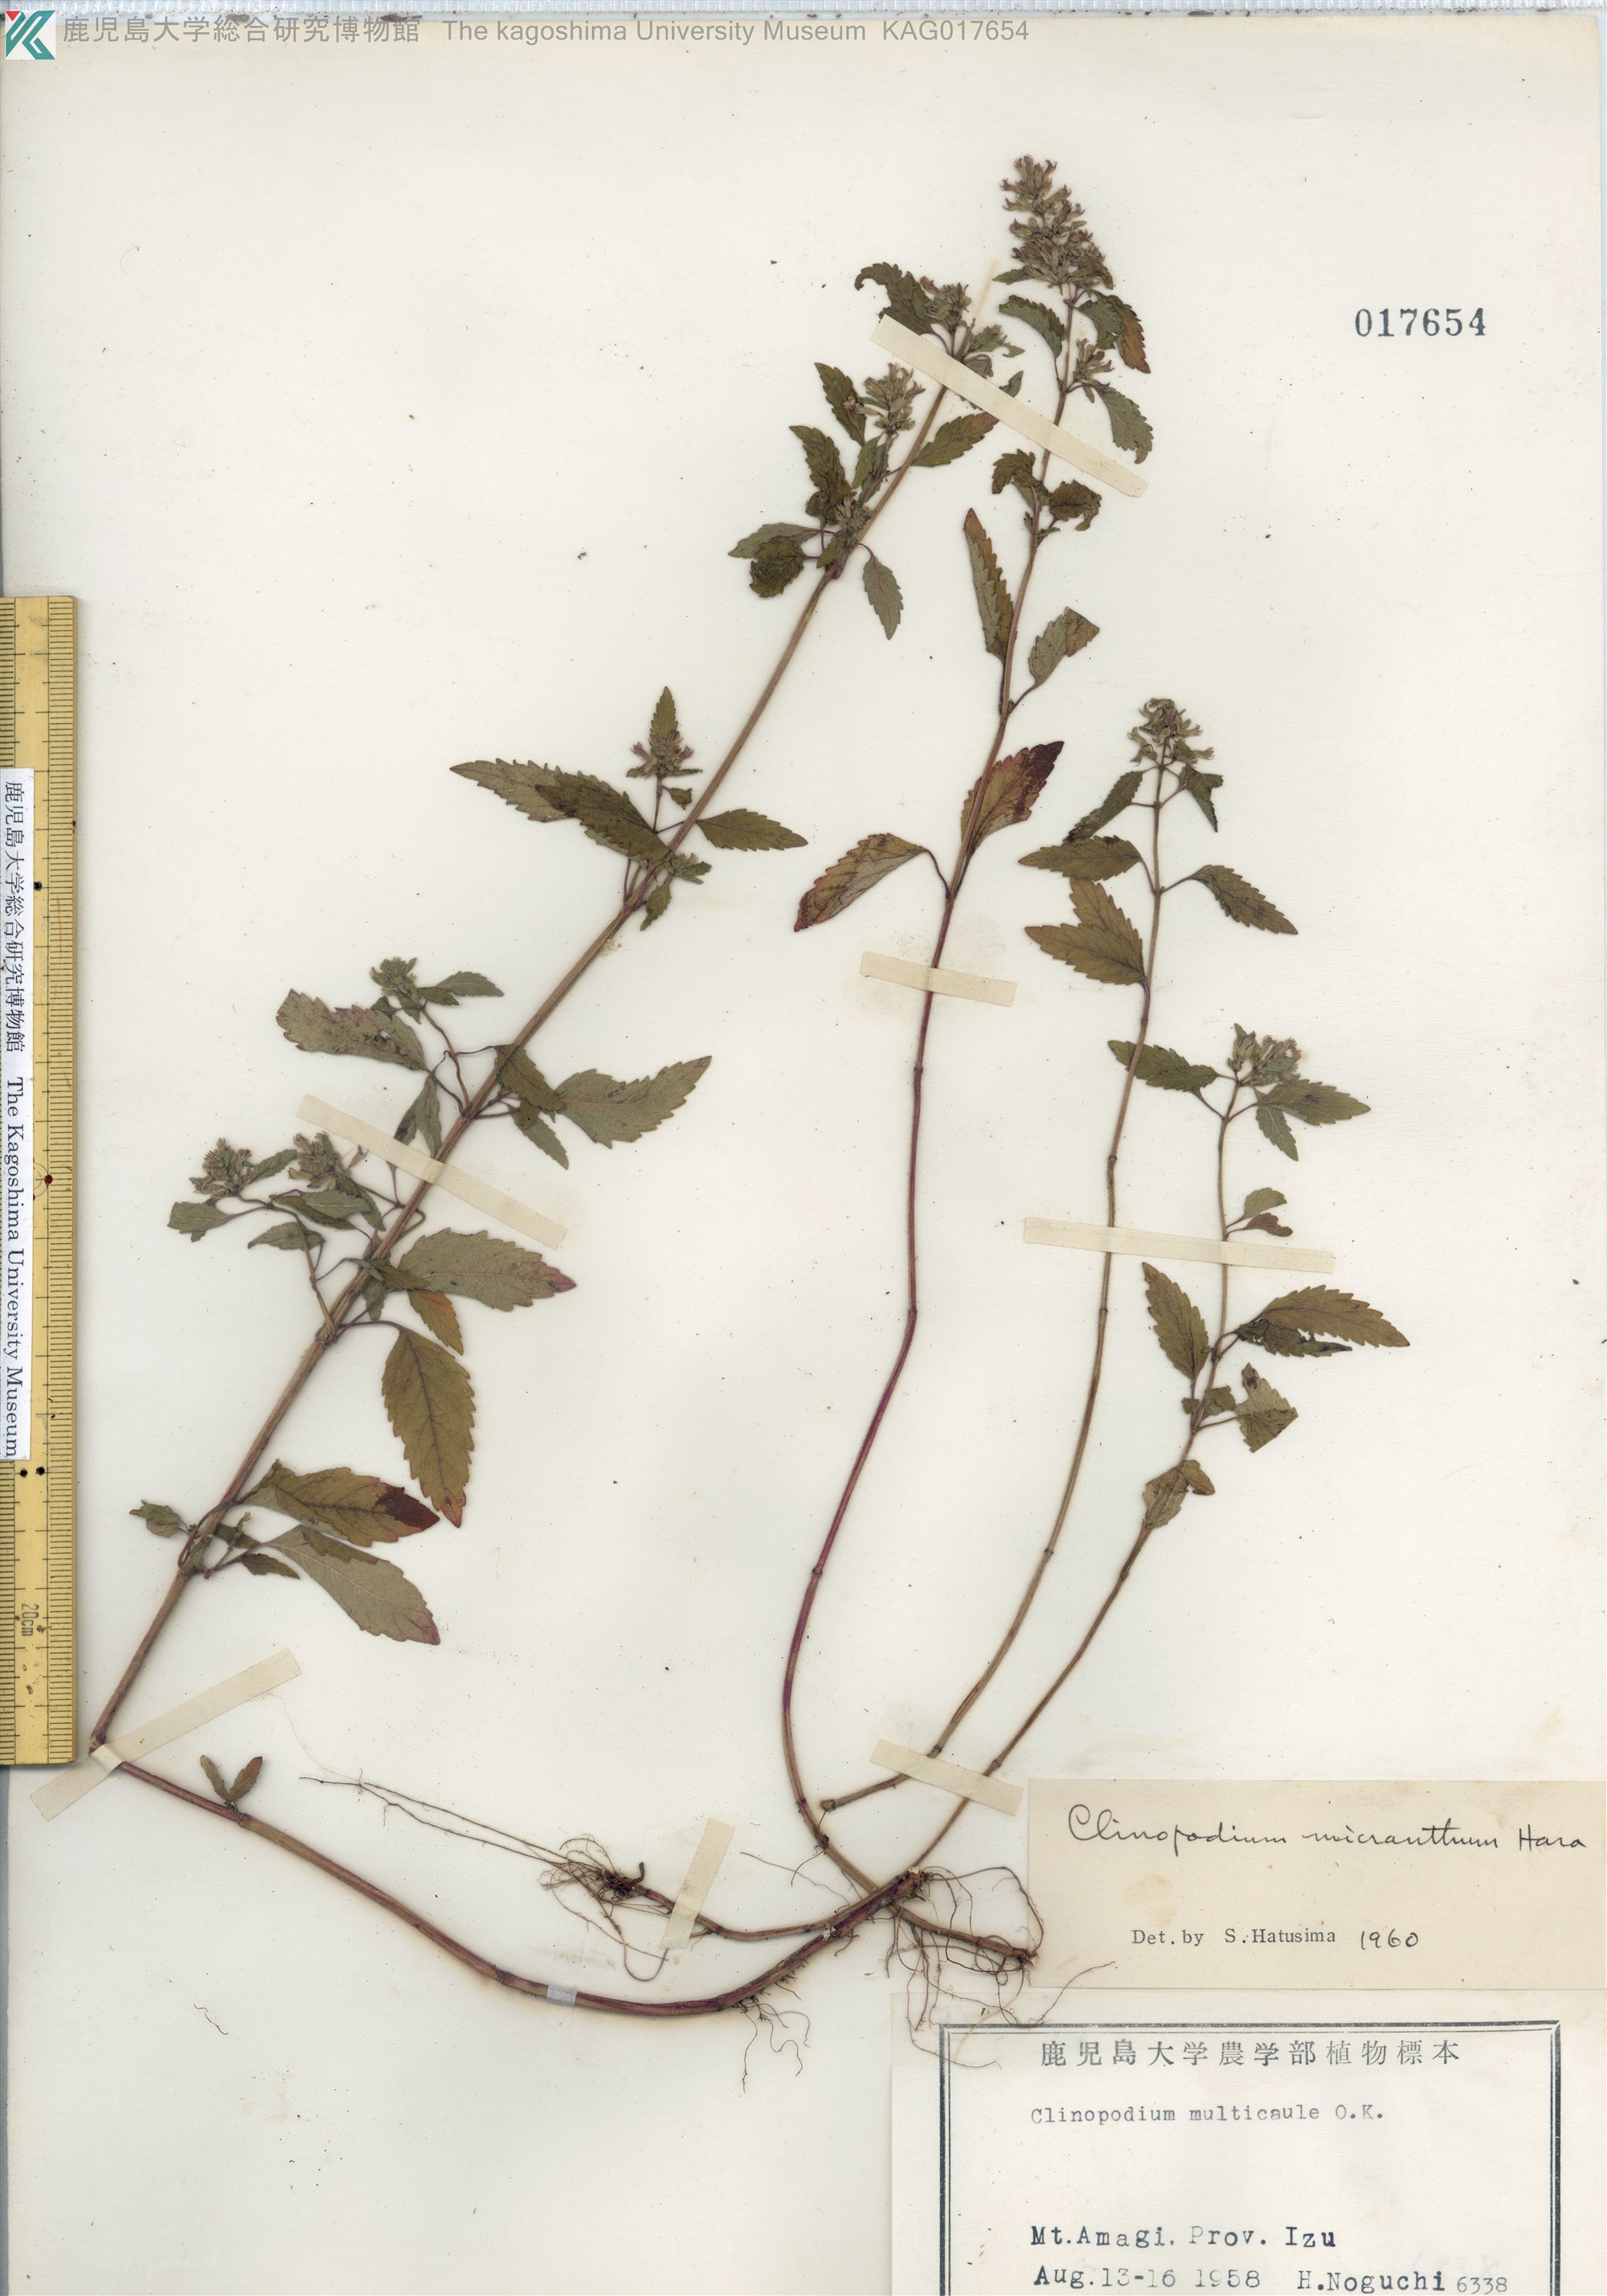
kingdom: Plantae
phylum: Tracheophyta
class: Magnoliopsida
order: Lamiales
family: Lamiaceae
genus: Clinopodium
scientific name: Clinopodium micranthum
